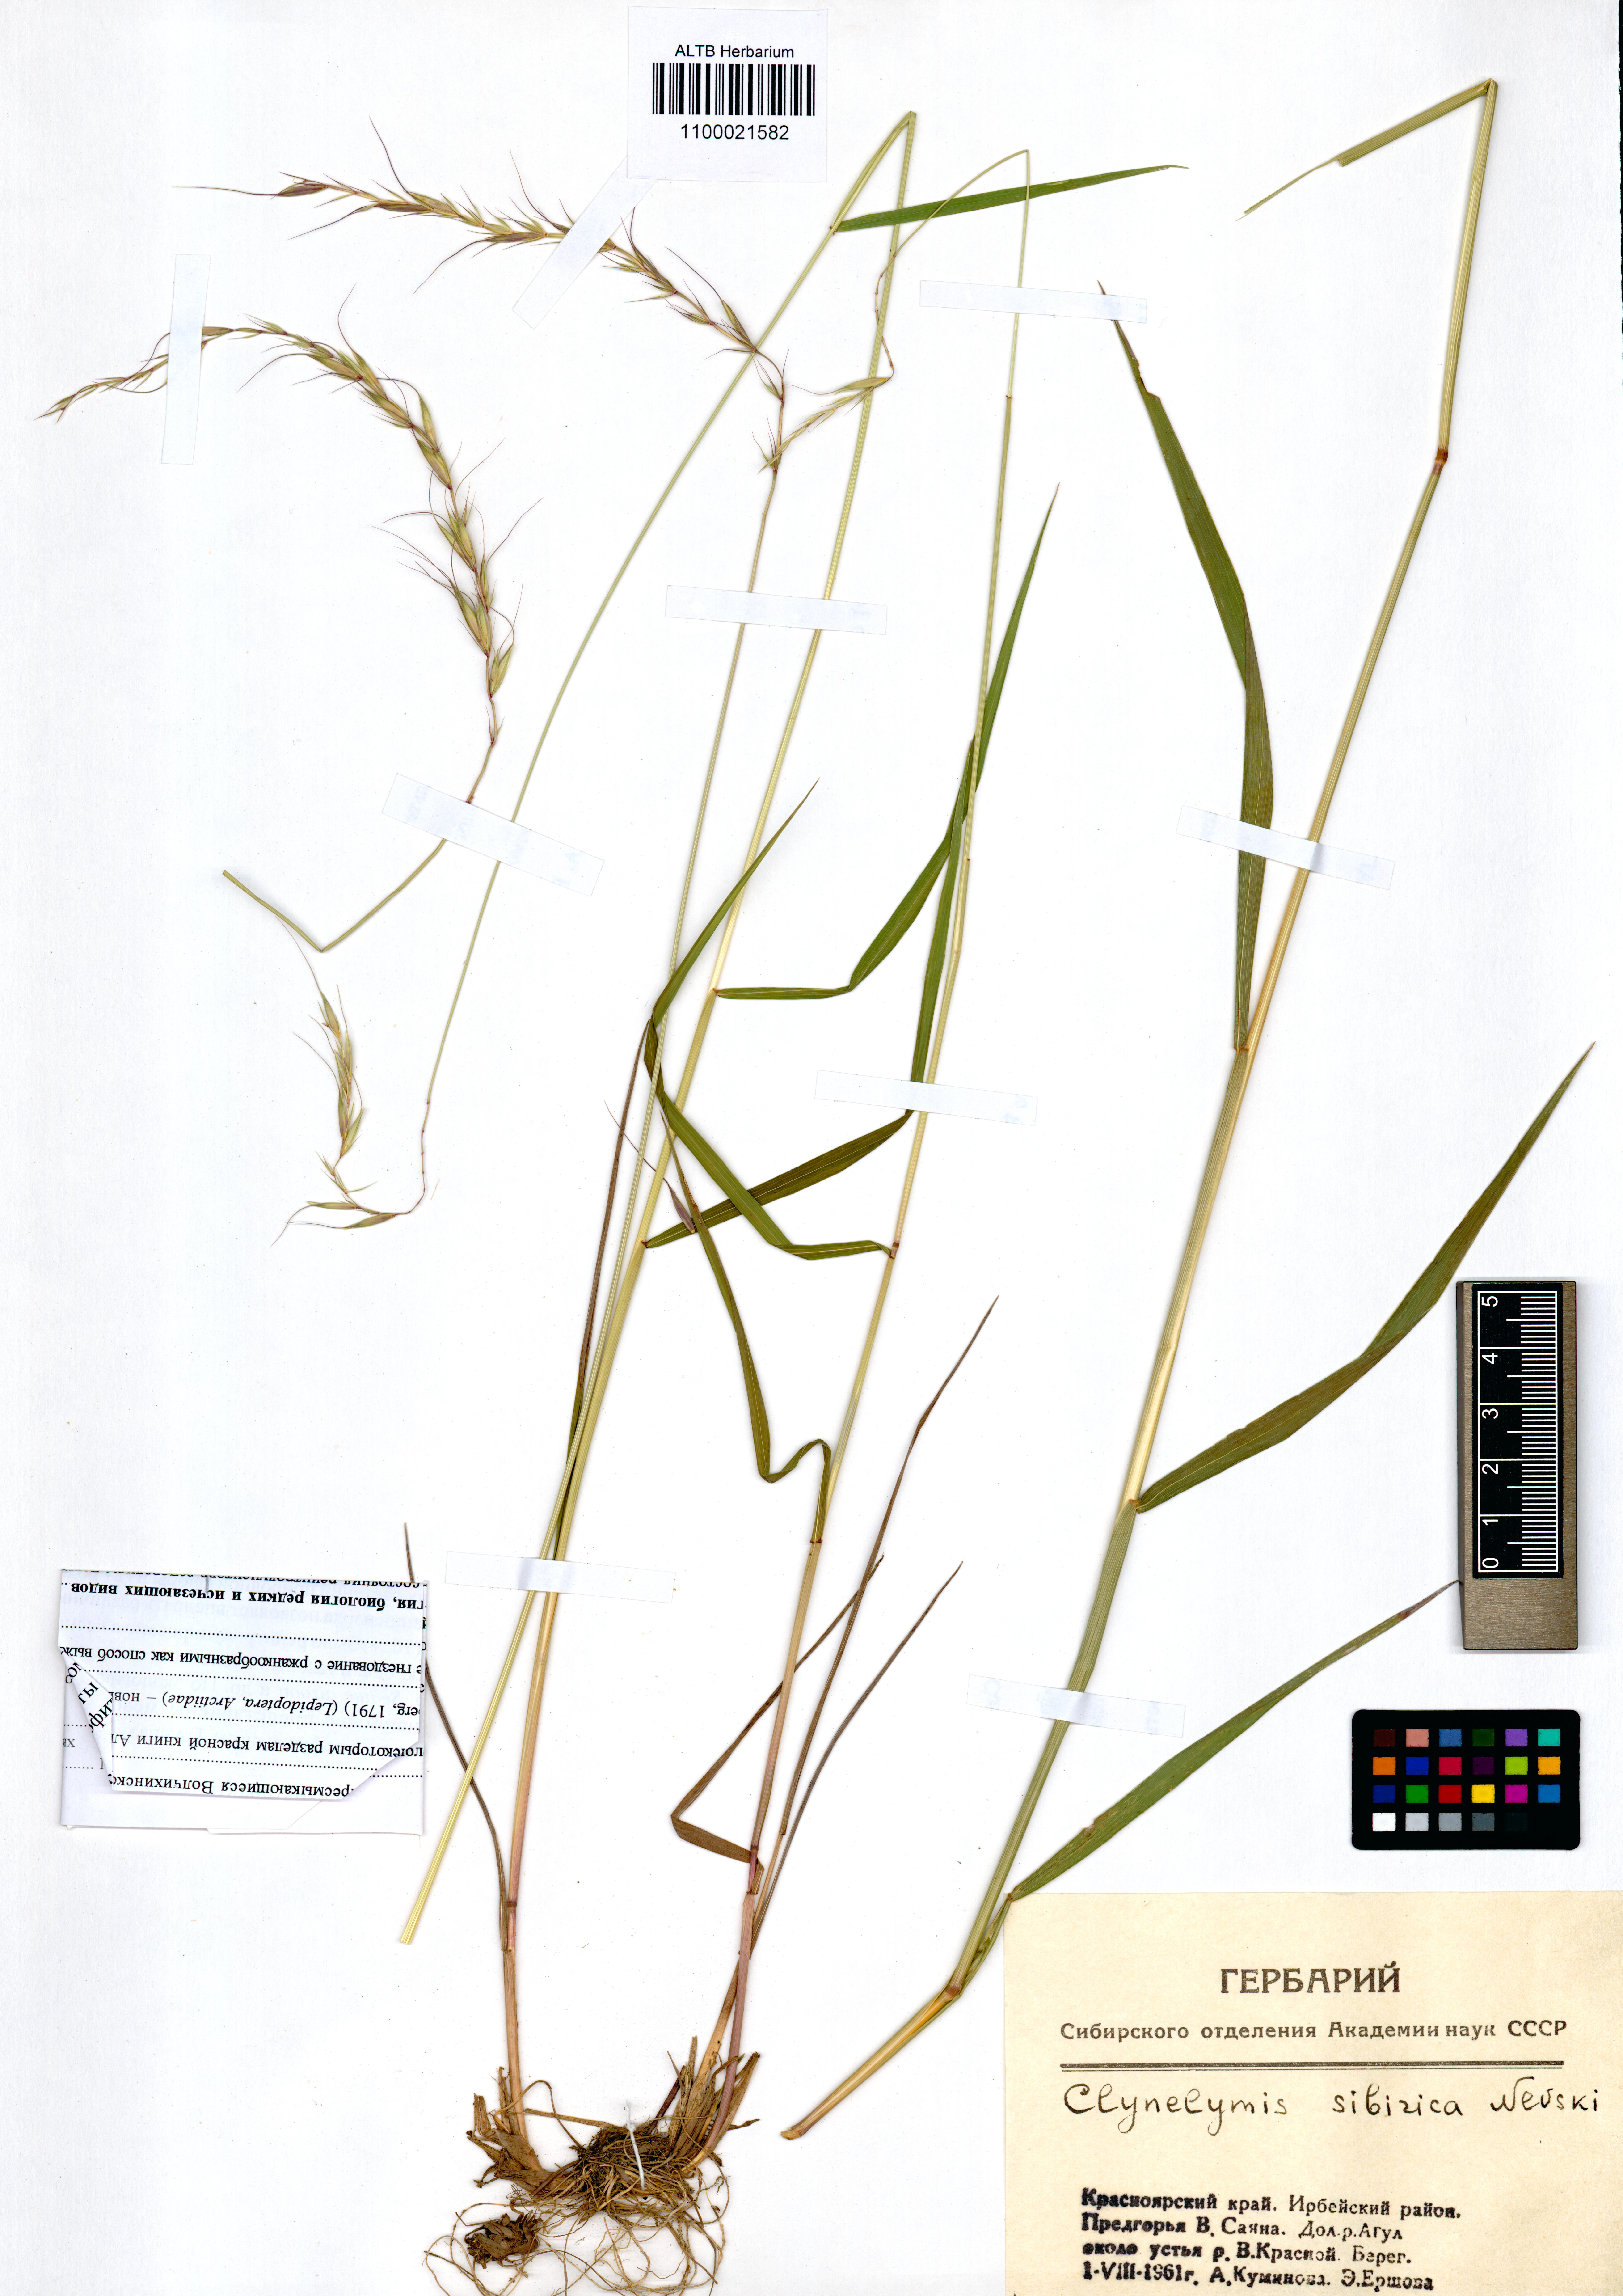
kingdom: Plantae
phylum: Tracheophyta
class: Liliopsida
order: Poales
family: Poaceae
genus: Elymus
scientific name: Elymus sibiricus
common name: Siberian wildrye
